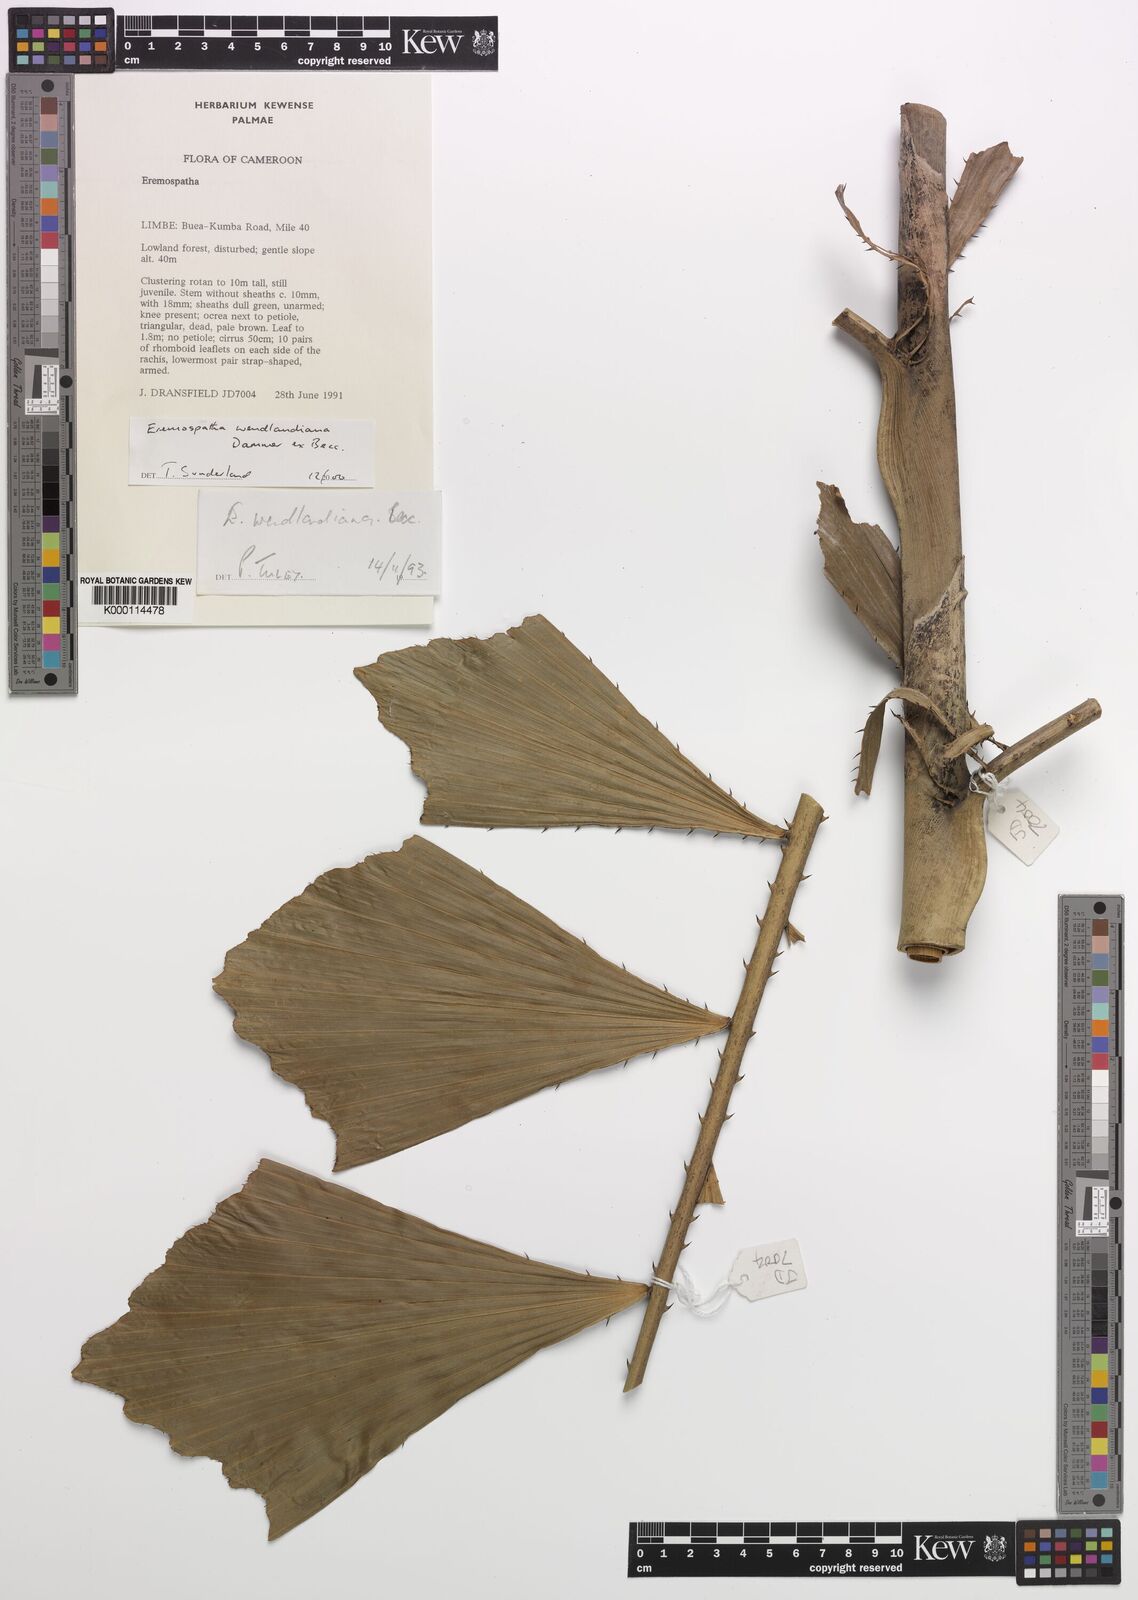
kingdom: Plantae
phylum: Tracheophyta
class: Liliopsida
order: Arecales
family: Arecaceae
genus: Eremospatha
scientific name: Eremospatha wendlandiana
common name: Rattan
